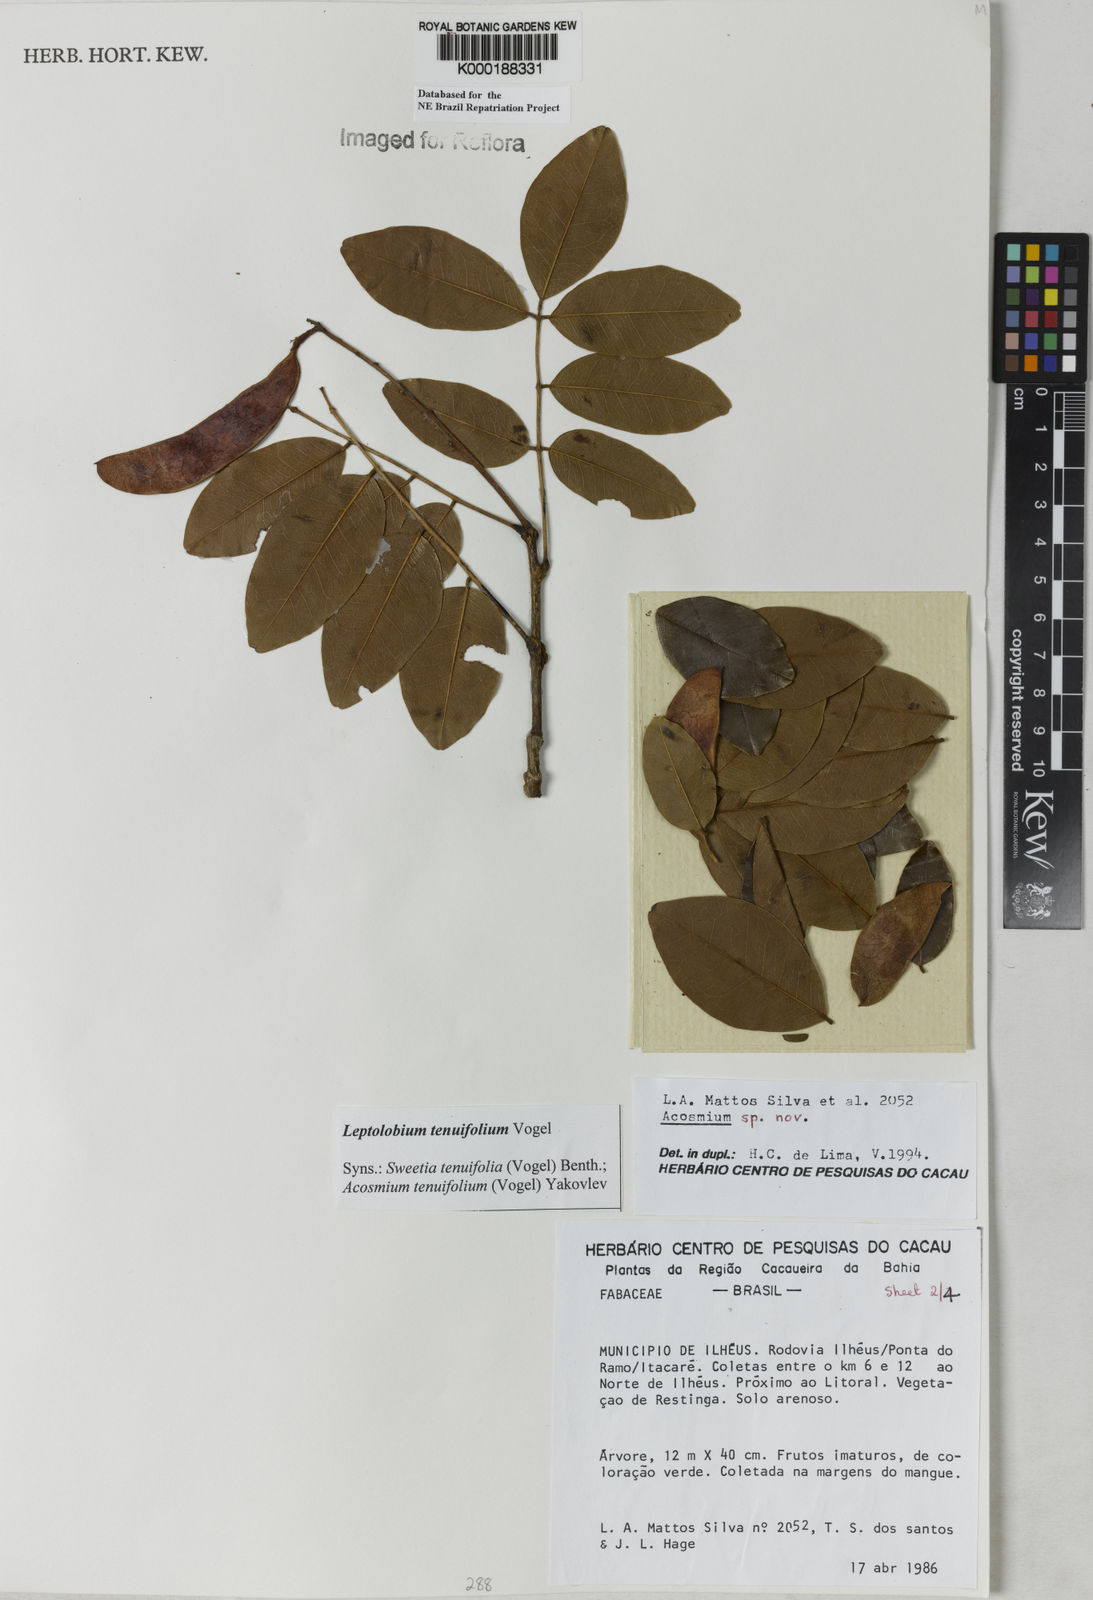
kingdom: Plantae
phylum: Tracheophyta
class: Magnoliopsida
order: Fabales
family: Fabaceae
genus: Leptolobium
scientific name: Leptolobium tenuifolium
